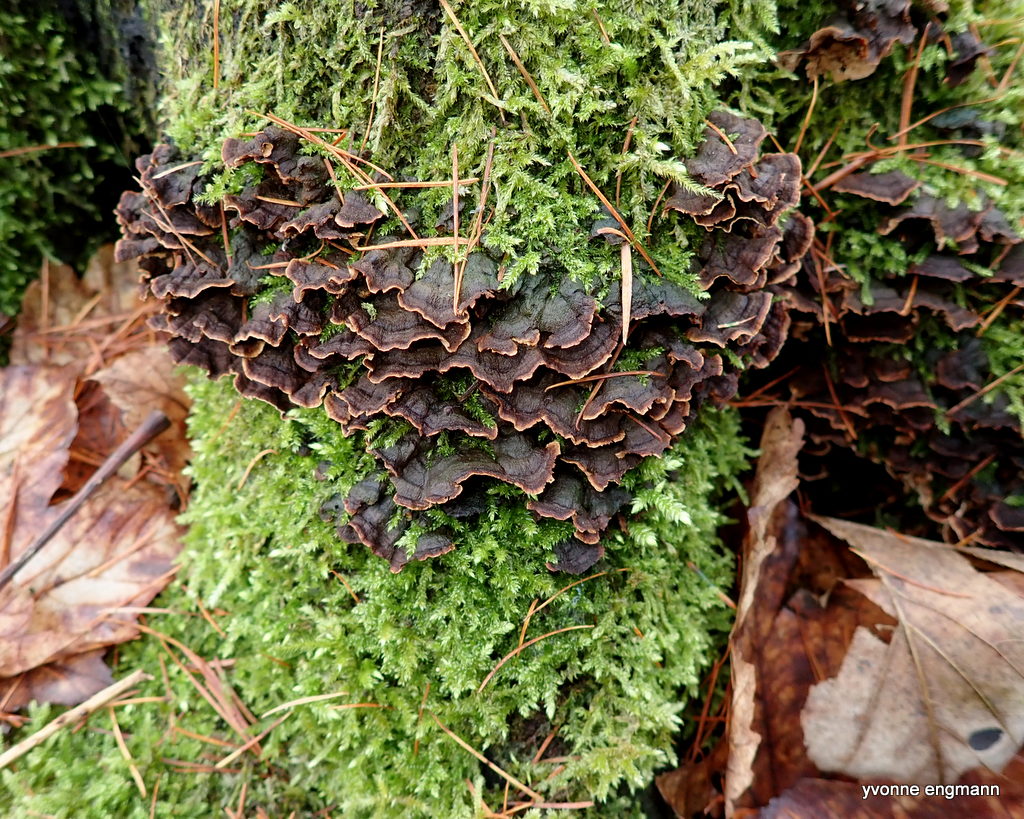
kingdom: Fungi
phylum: Basidiomycota
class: Agaricomycetes
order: Hymenochaetales
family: Hymenochaetaceae
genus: Hymenochaete
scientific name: Hymenochaete rubiginosa
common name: stiv ruslædersvamp
